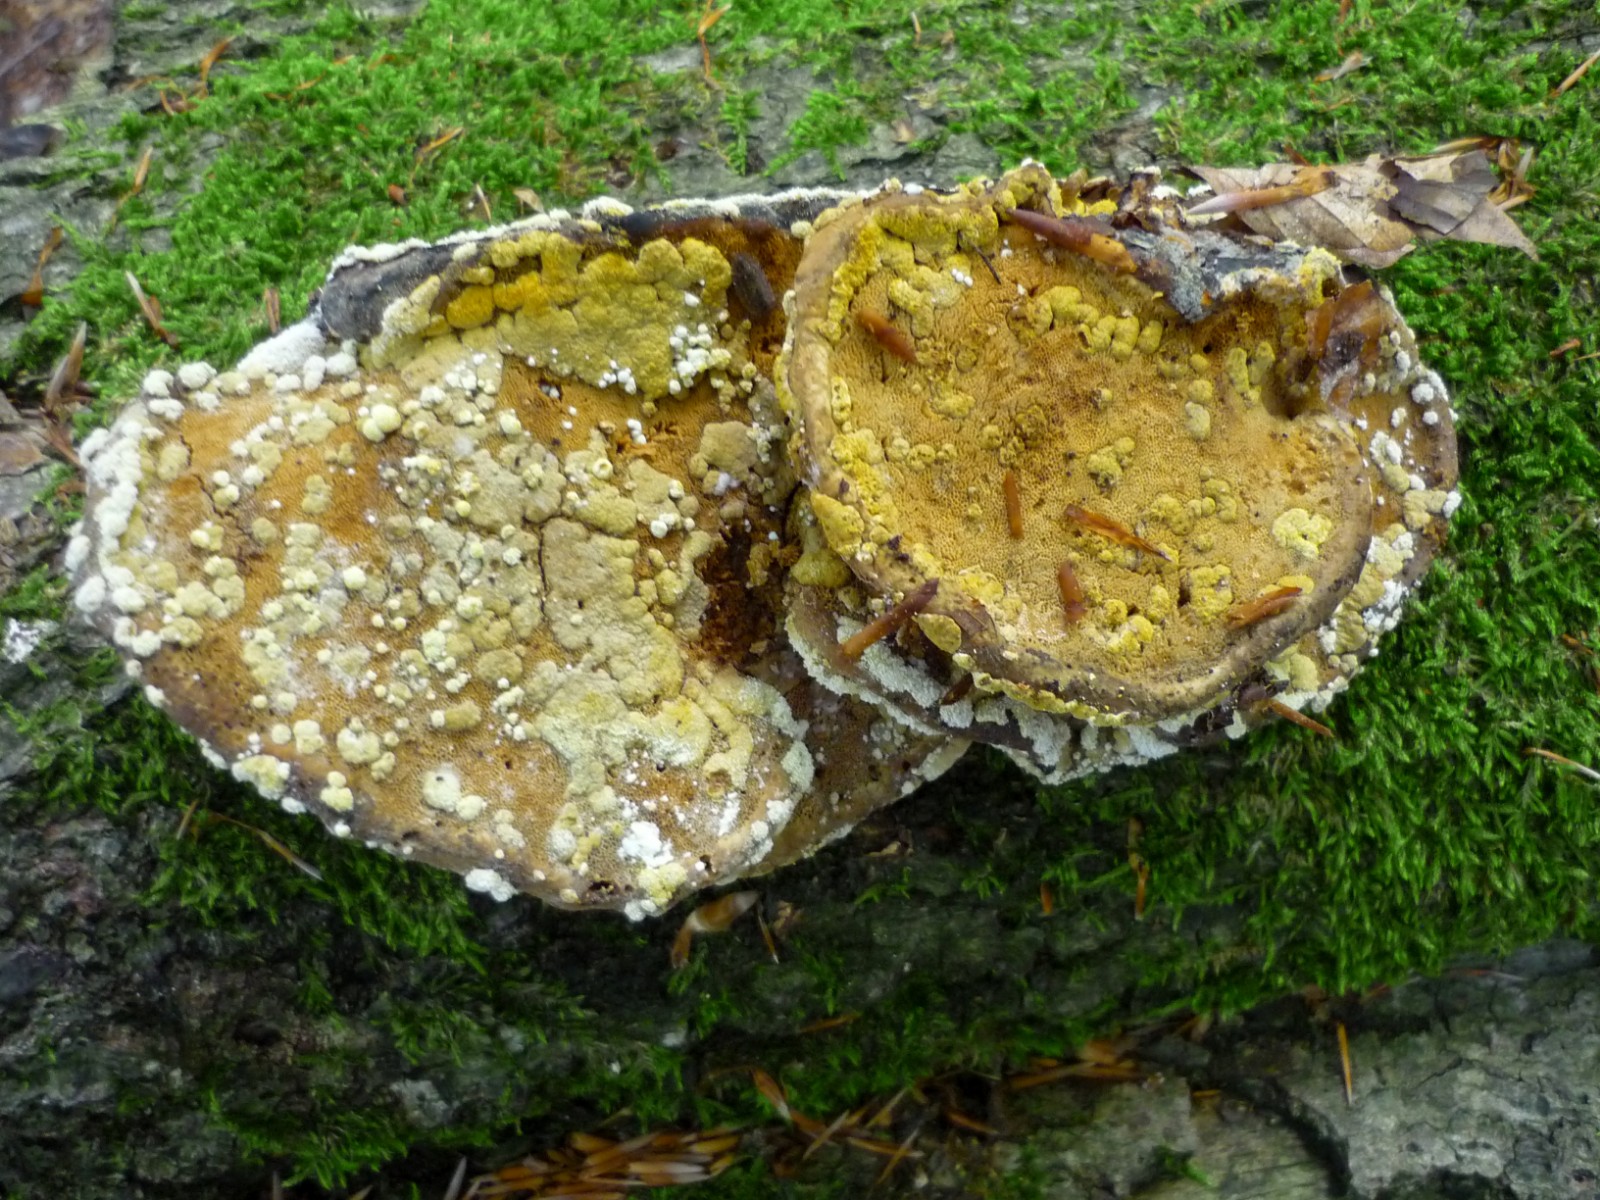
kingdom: Fungi
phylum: Ascomycota
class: Sordariomycetes
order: Hypocreales
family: Hypocreaceae
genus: Trichoderma
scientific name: Trichoderma pulvinatum
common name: snyltende kødkerne
